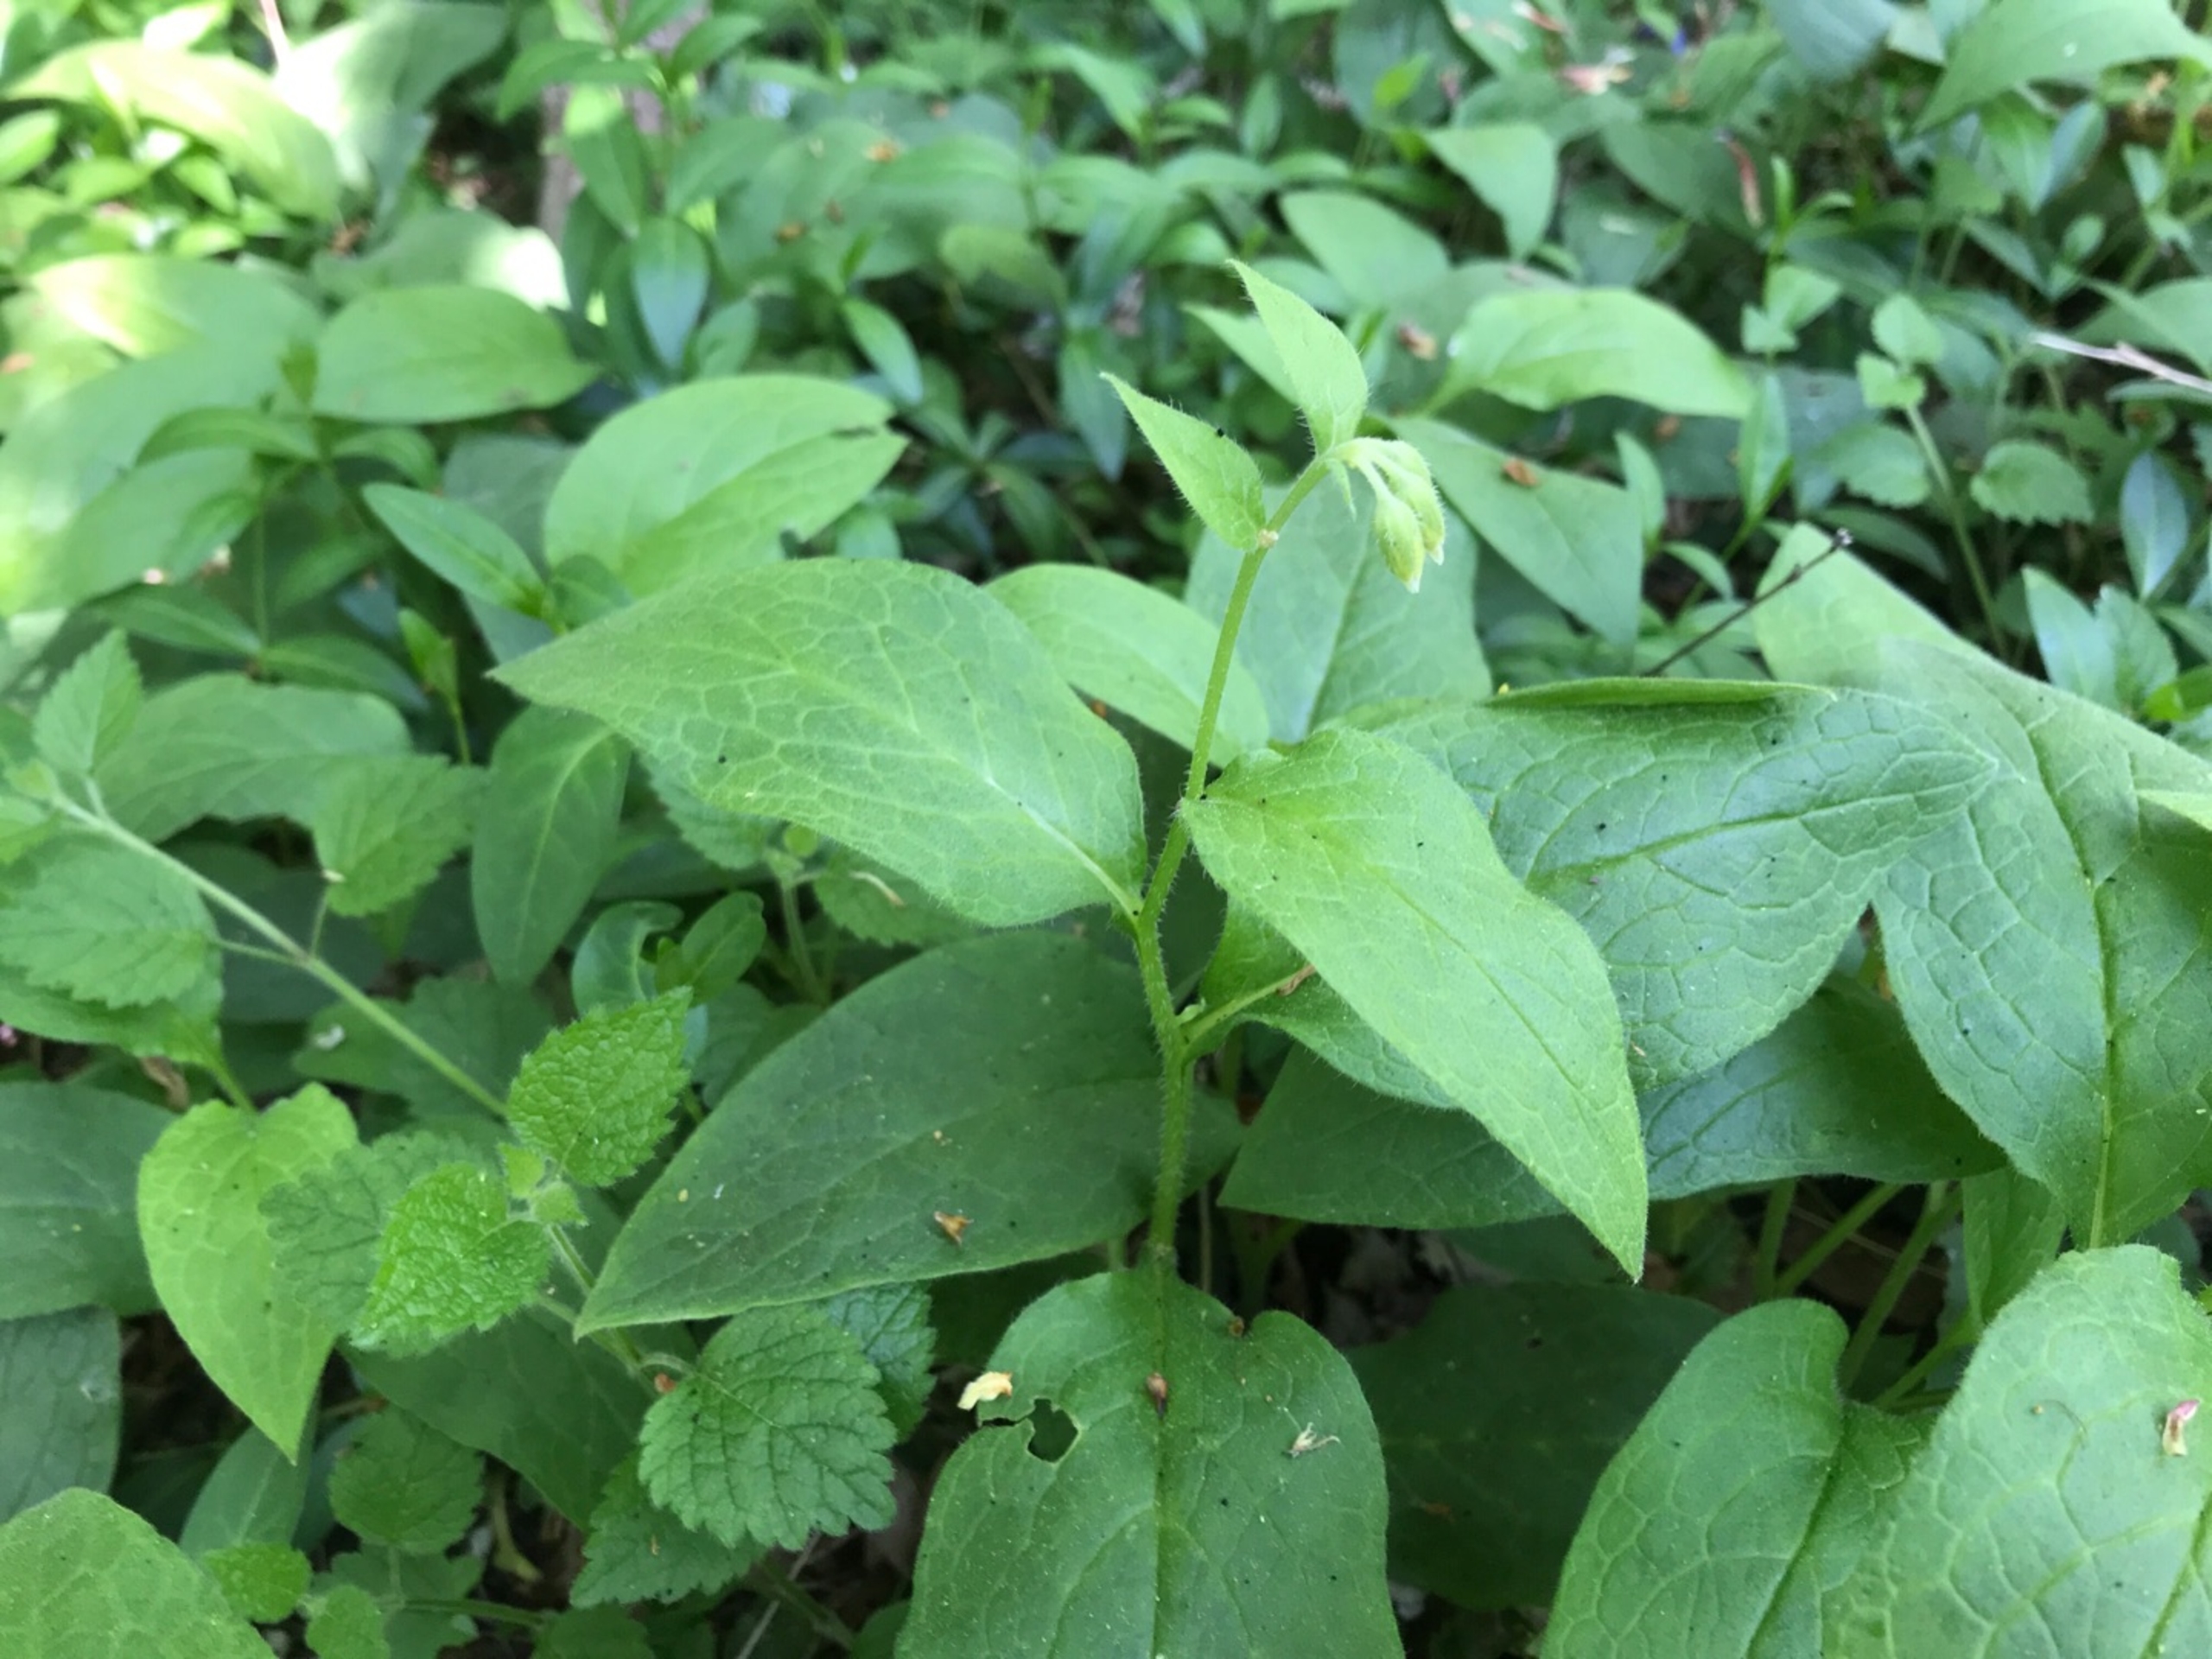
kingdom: Plantae
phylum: Tracheophyta
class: Magnoliopsida
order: Boraginales
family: Boraginaceae
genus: Symphytum
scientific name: Symphytum bulbosum
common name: Bleggul kulsukker
